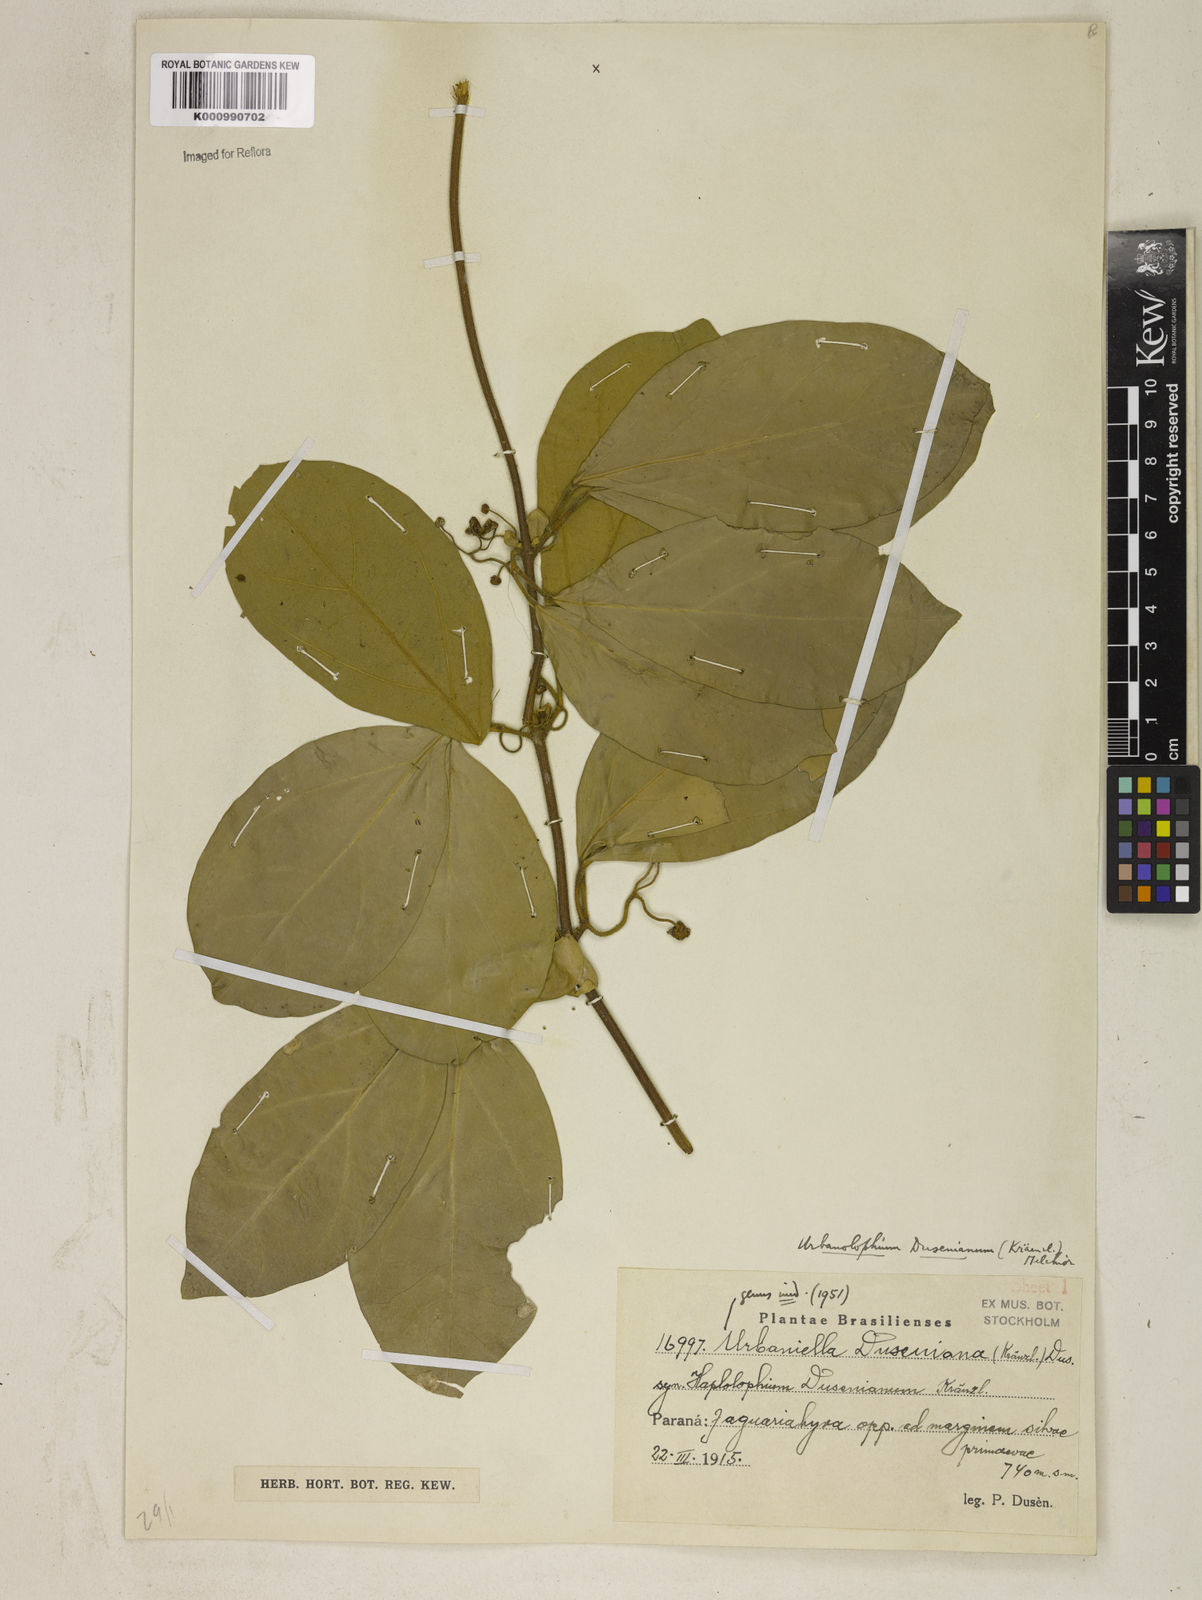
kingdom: Plantae
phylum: Tracheophyta
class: Magnoliopsida
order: Lamiales
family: Bignoniaceae
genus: Amphilophium
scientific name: Amphilophium dusenianum
